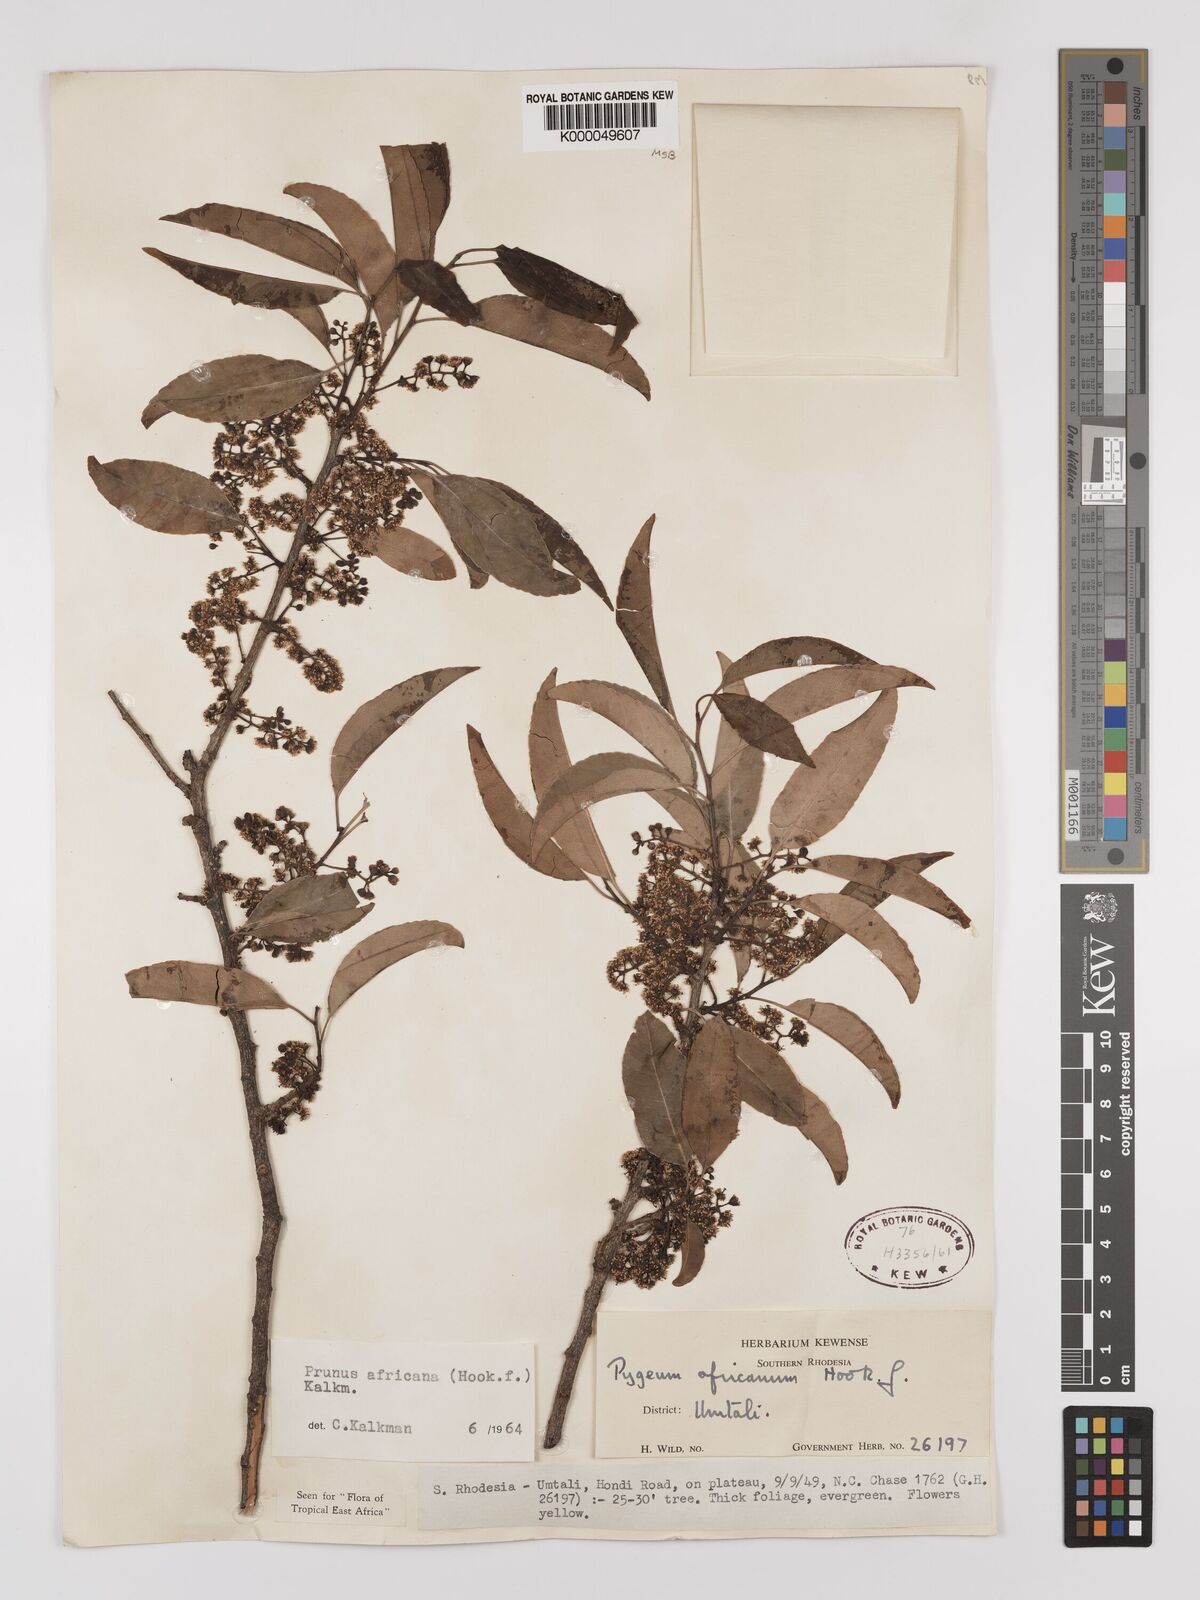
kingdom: Plantae
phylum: Tracheophyta
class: Magnoliopsida
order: Rosales
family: Rosaceae
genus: Prunus
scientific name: Prunus africana
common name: African cherry
